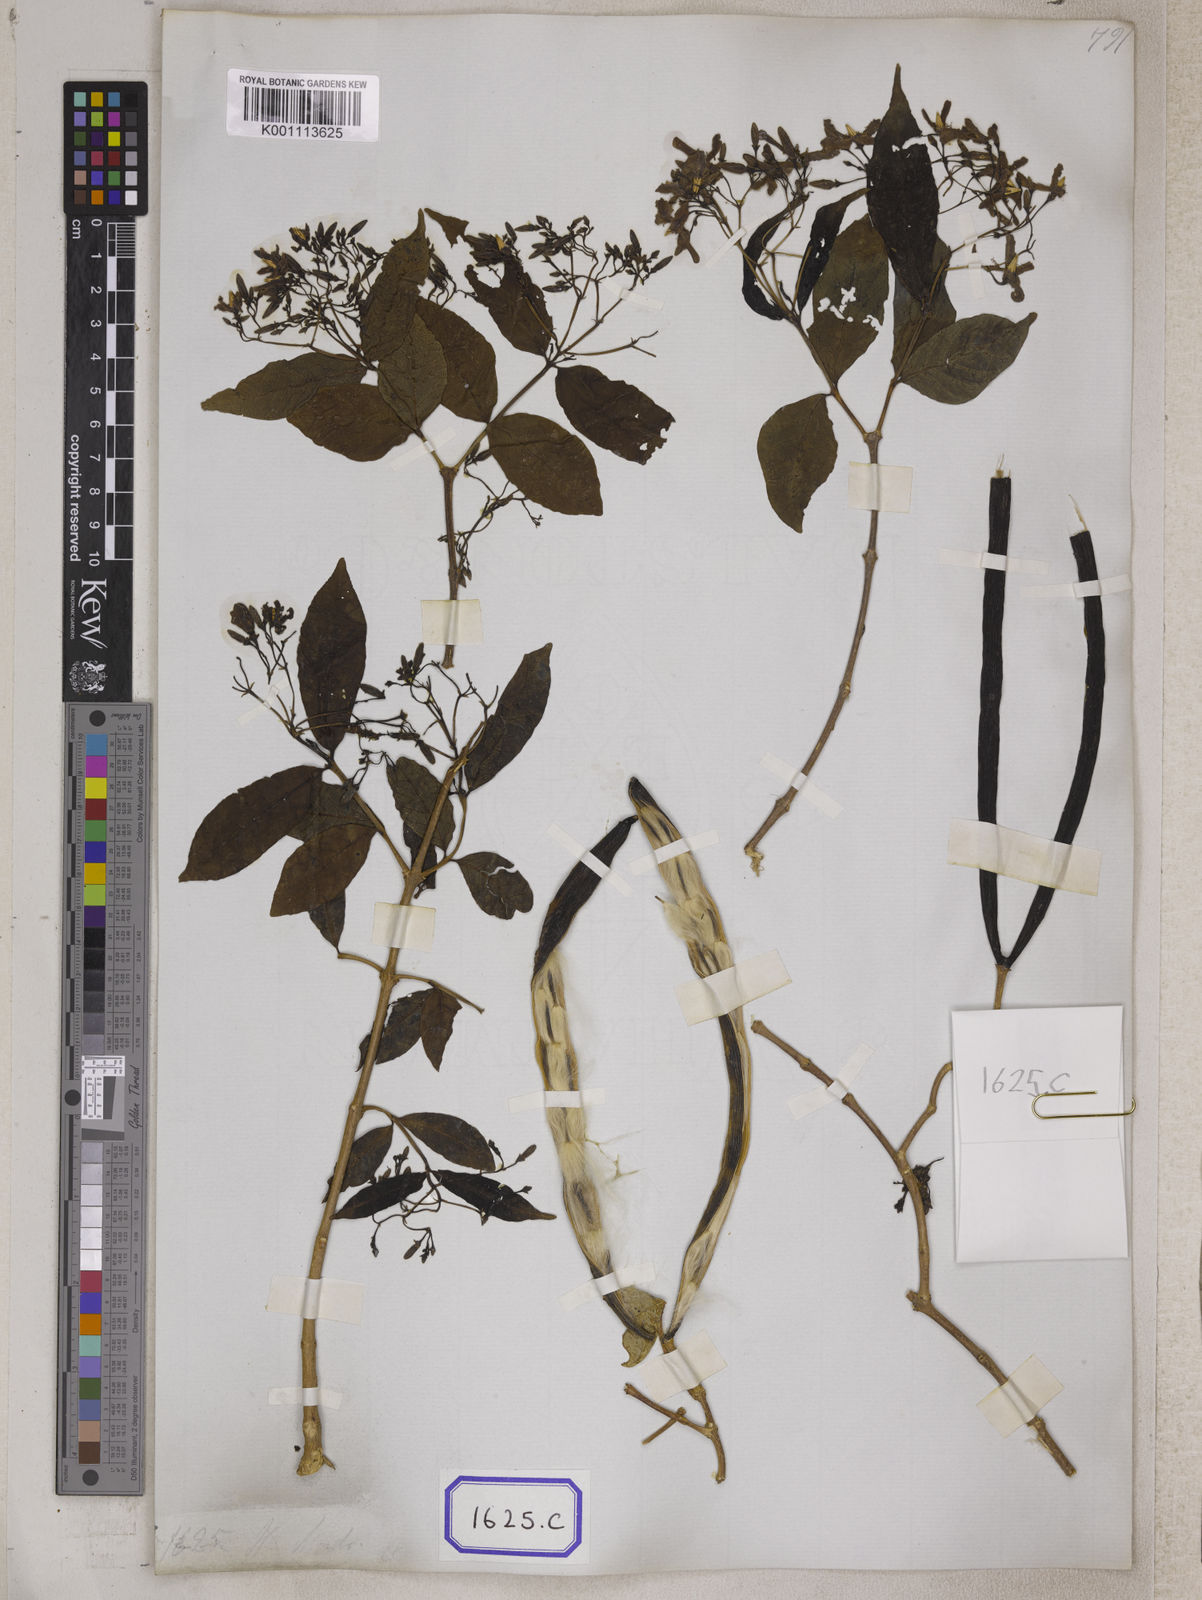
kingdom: Plantae
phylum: Tracheophyta
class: Magnoliopsida
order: Gentianales
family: Apocynaceae
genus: Wrightia
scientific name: Wrightia tinctoria
